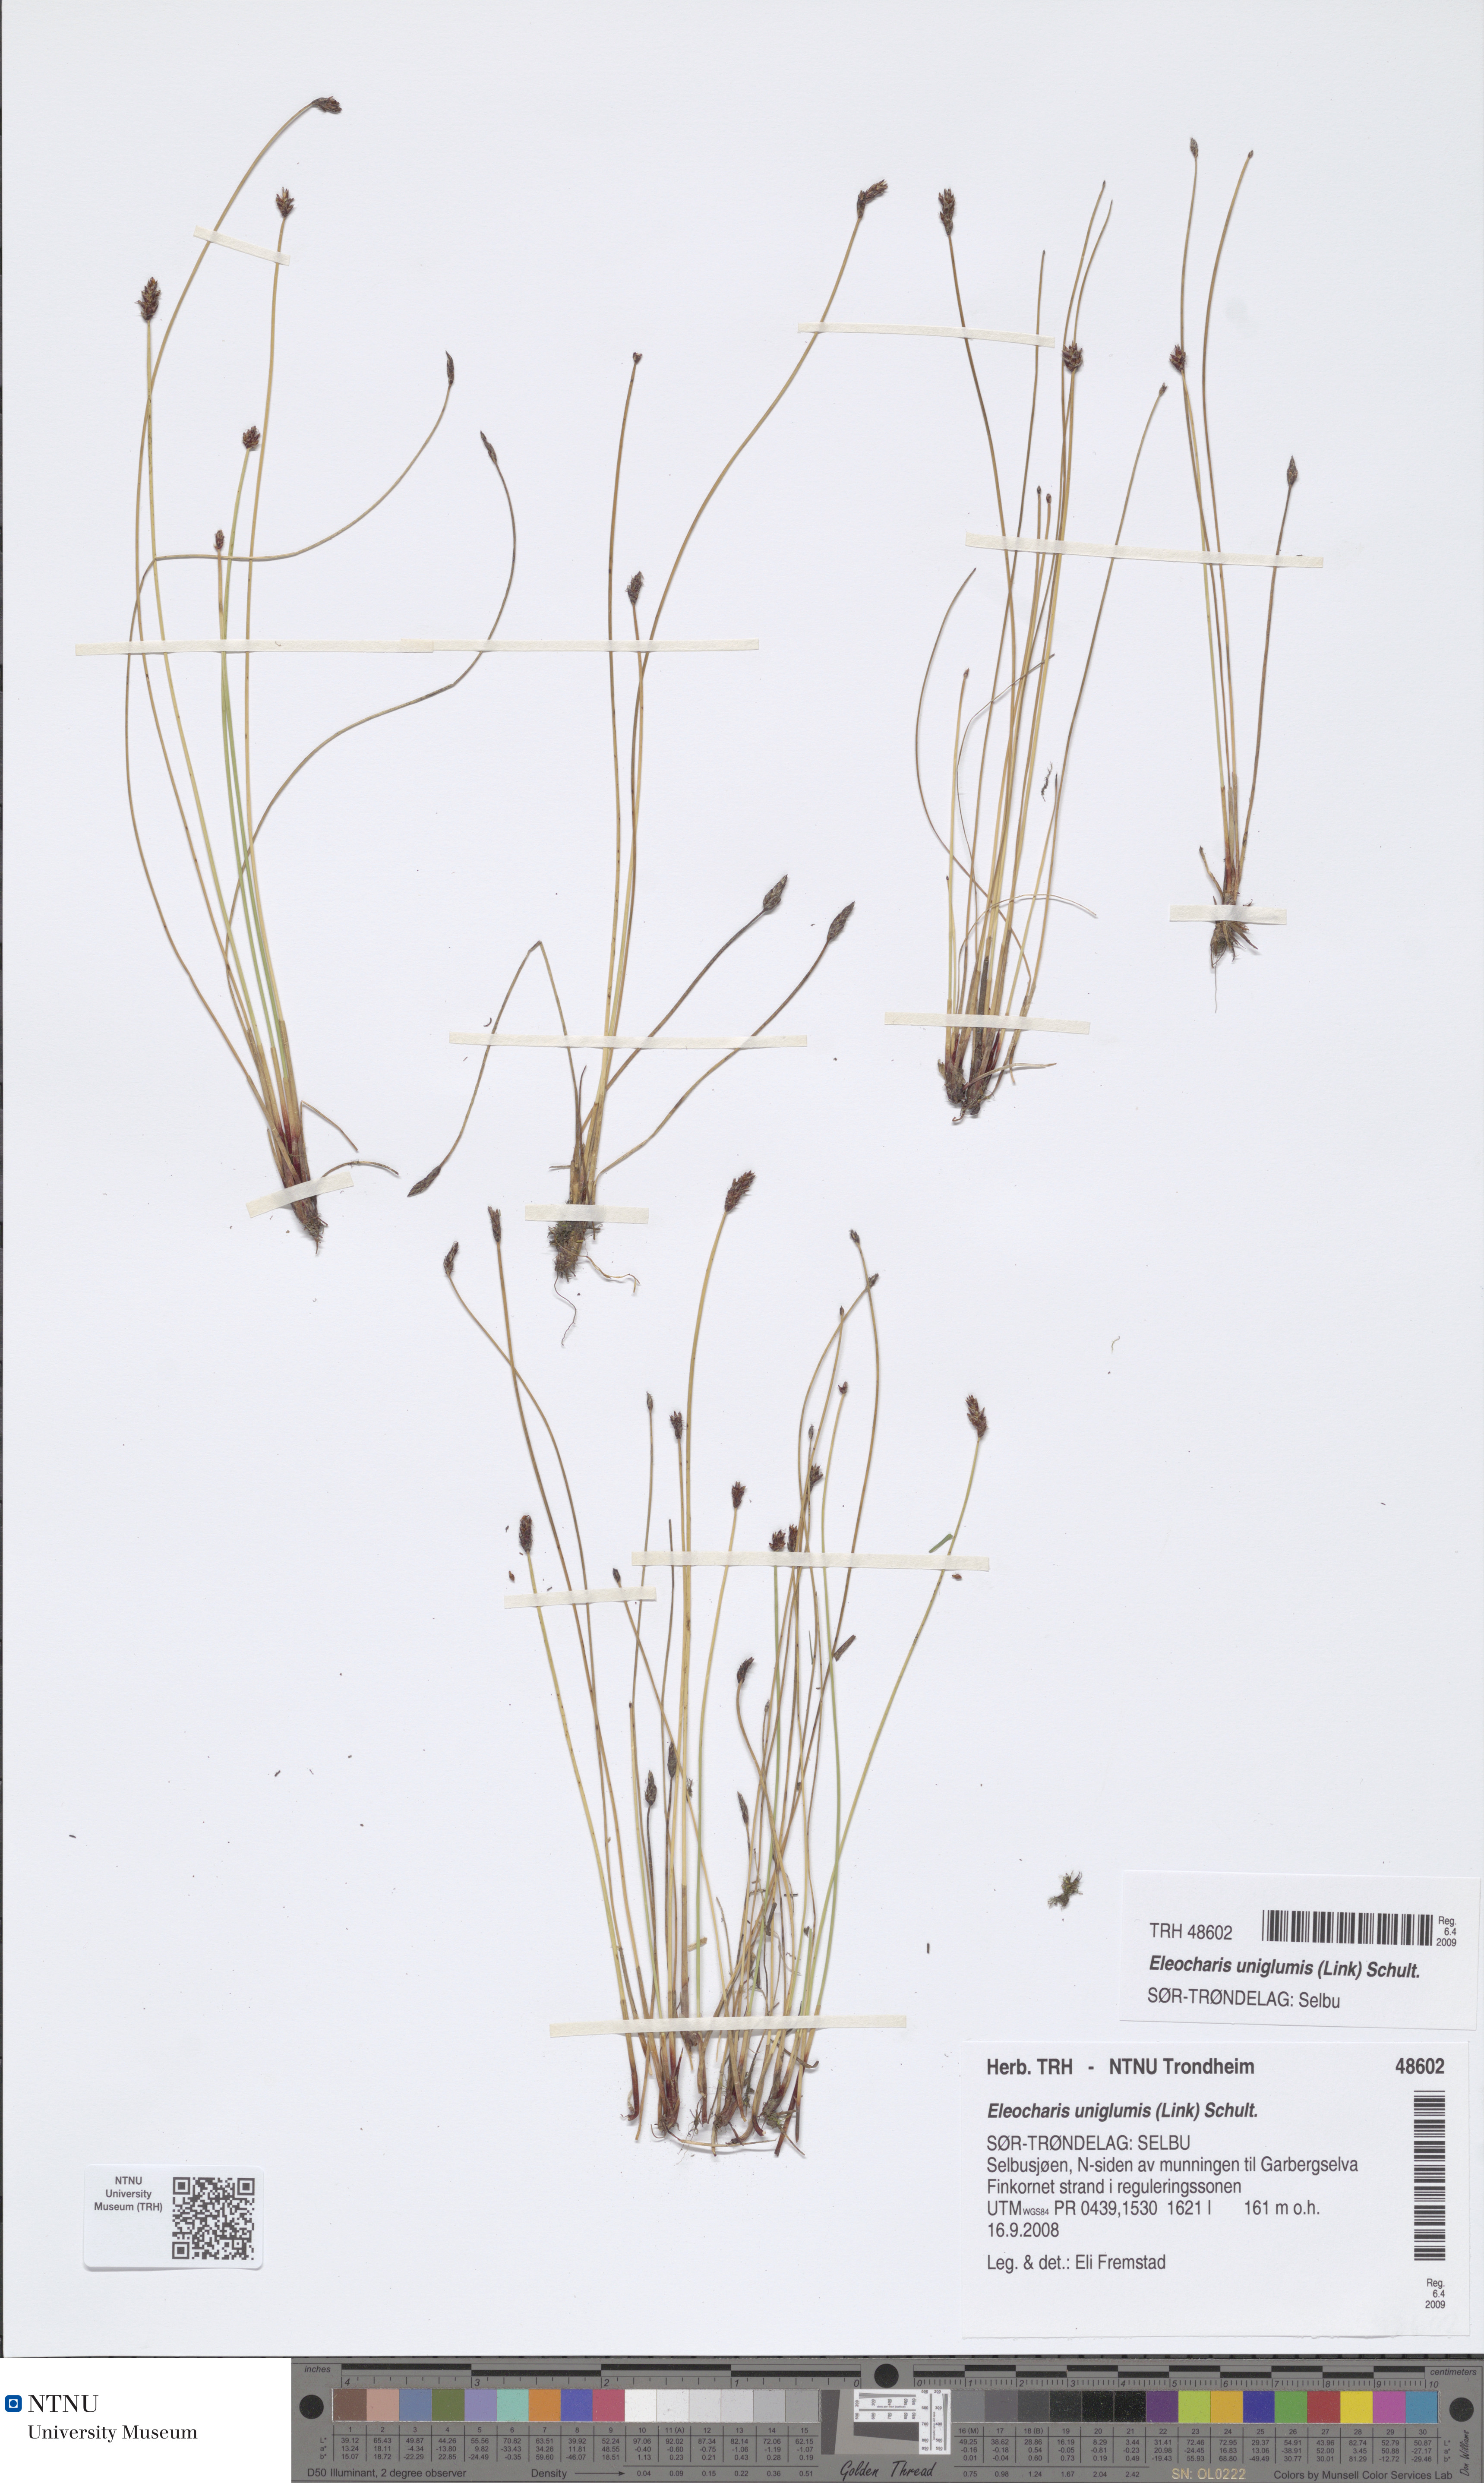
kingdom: Plantae
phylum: Tracheophyta
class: Liliopsida
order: Poales
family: Cyperaceae
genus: Eleocharis
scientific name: Eleocharis uniglumis
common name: Slender spike-rush
